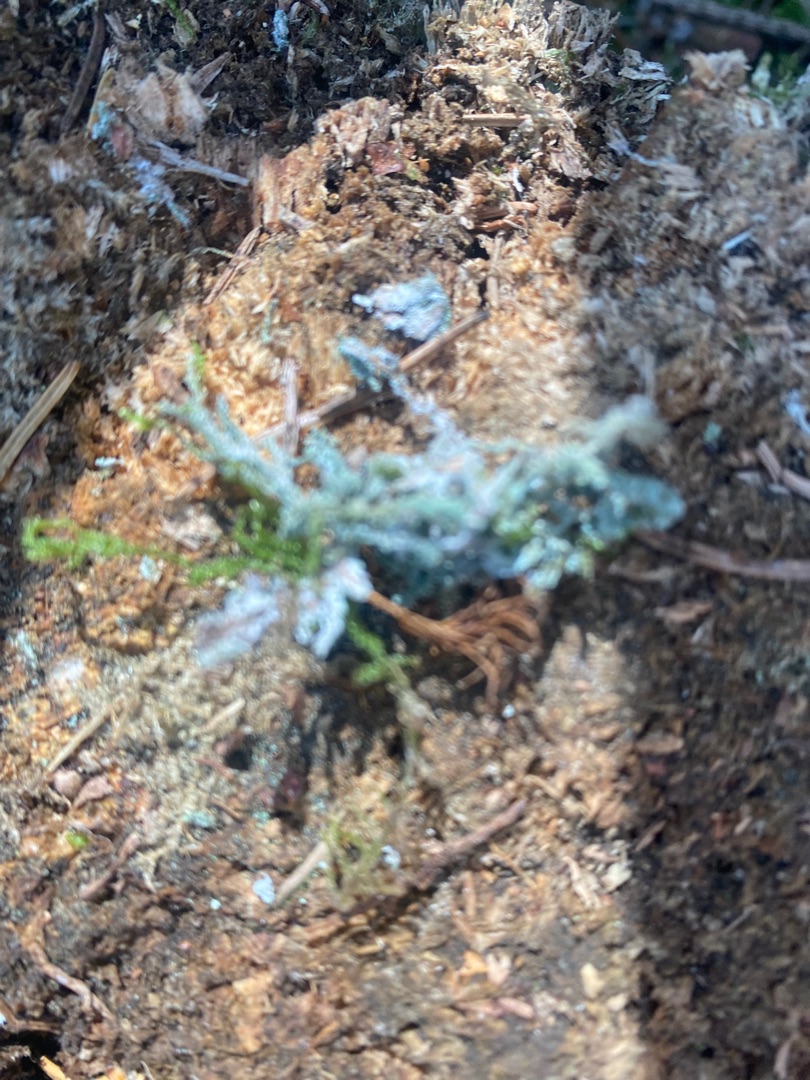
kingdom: Fungi
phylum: Ascomycota
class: Lecanoromycetes
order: Lecanorales
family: Cladoniaceae
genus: Cladonia
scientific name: Cladonia
